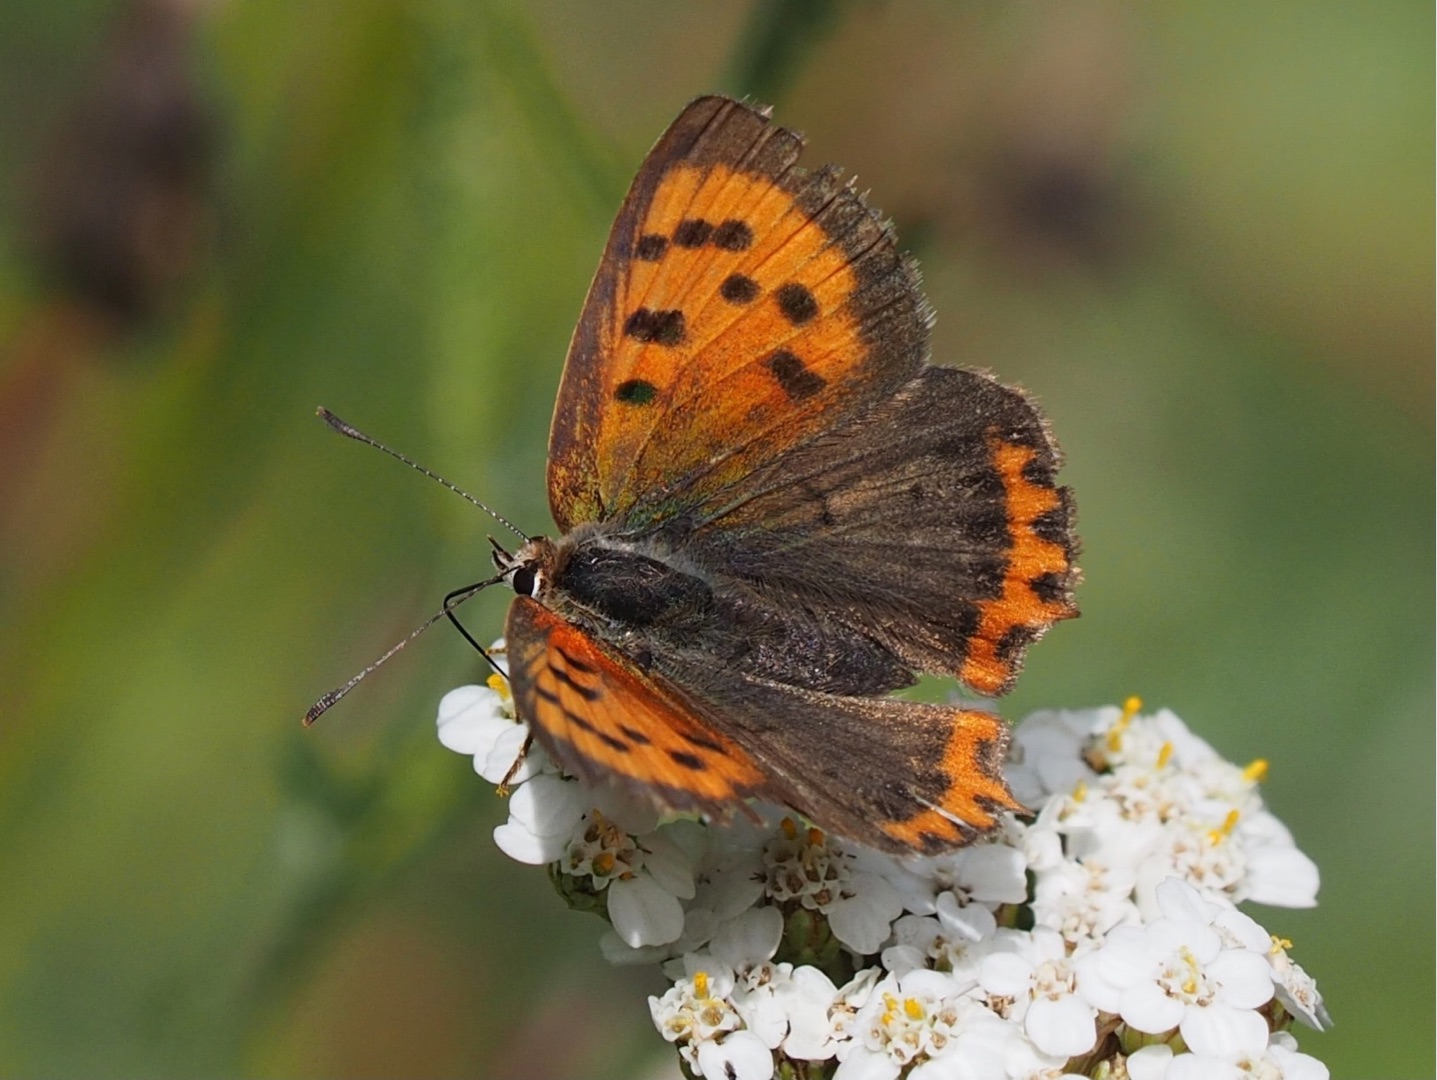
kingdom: Animalia
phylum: Arthropoda
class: Insecta
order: Lepidoptera
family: Lycaenidae
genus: Lycaena
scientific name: Lycaena phlaeas
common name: Lille ildfugl
